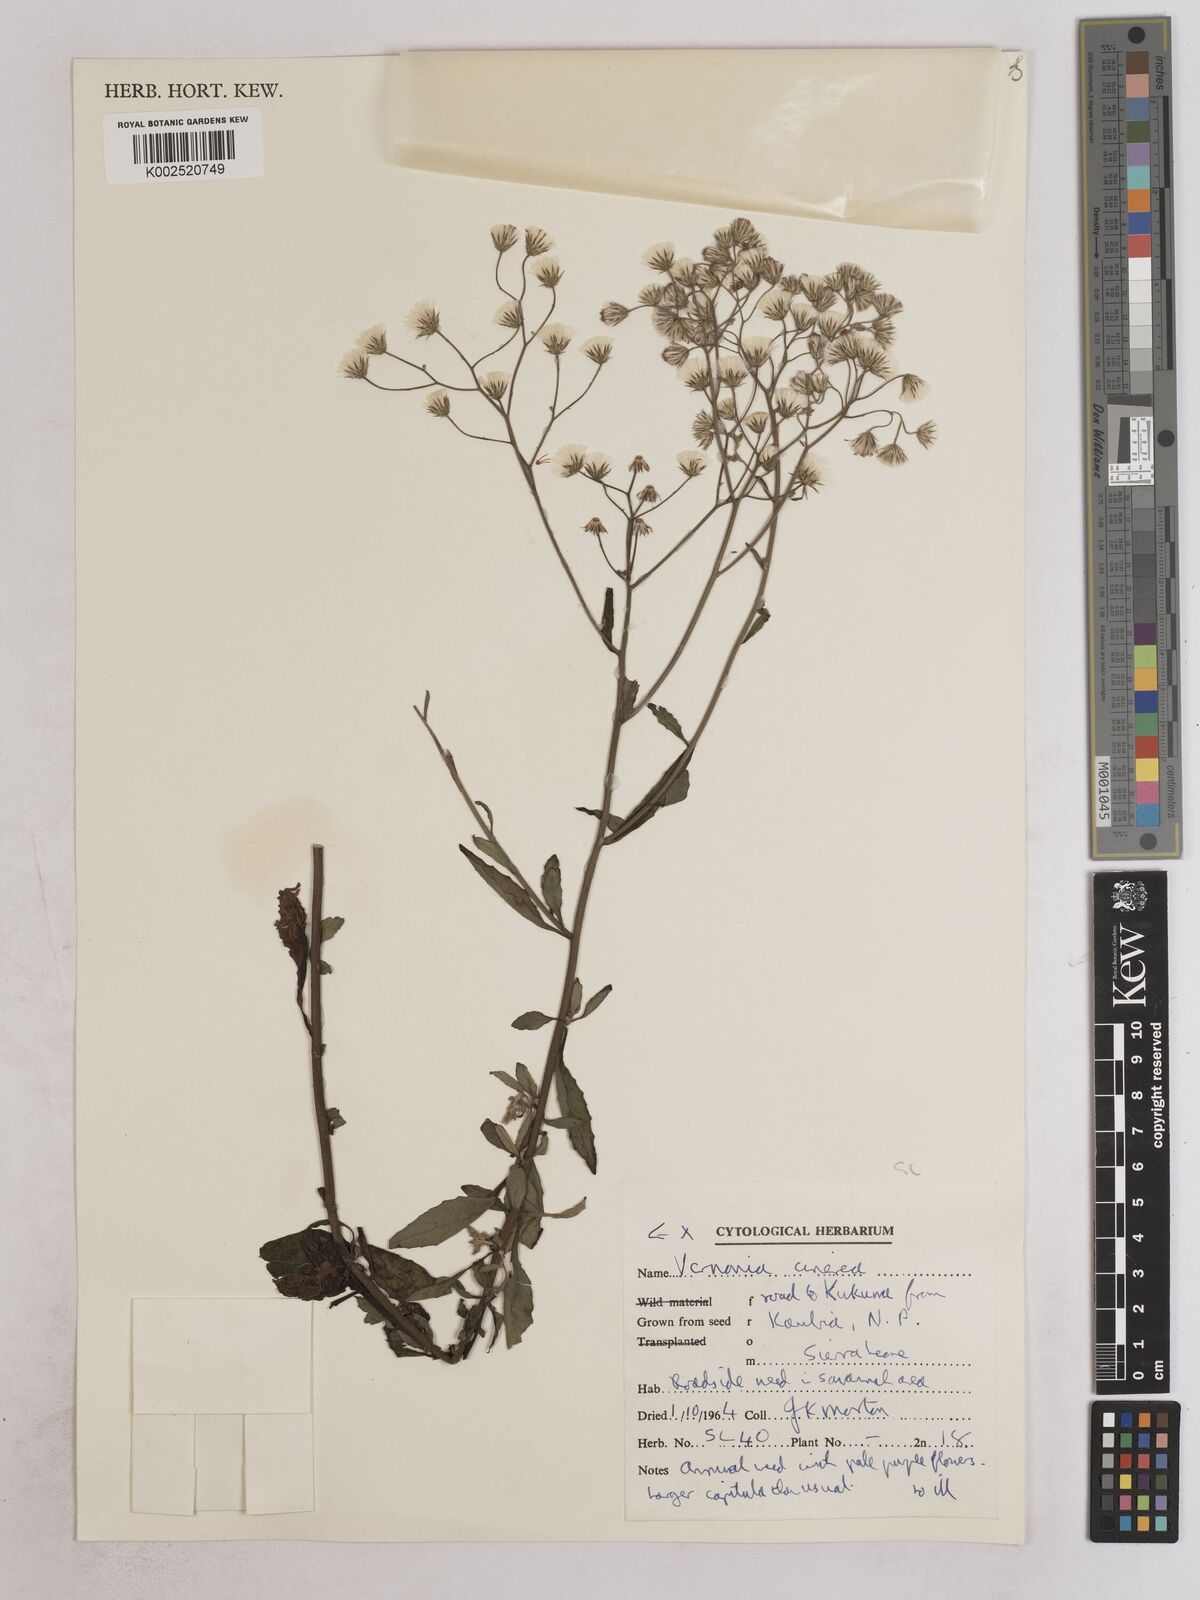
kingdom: Plantae
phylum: Tracheophyta
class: Magnoliopsida
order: Asterales
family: Asteraceae
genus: Cyanthillium
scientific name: Cyanthillium cinereum
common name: Little ironweed
